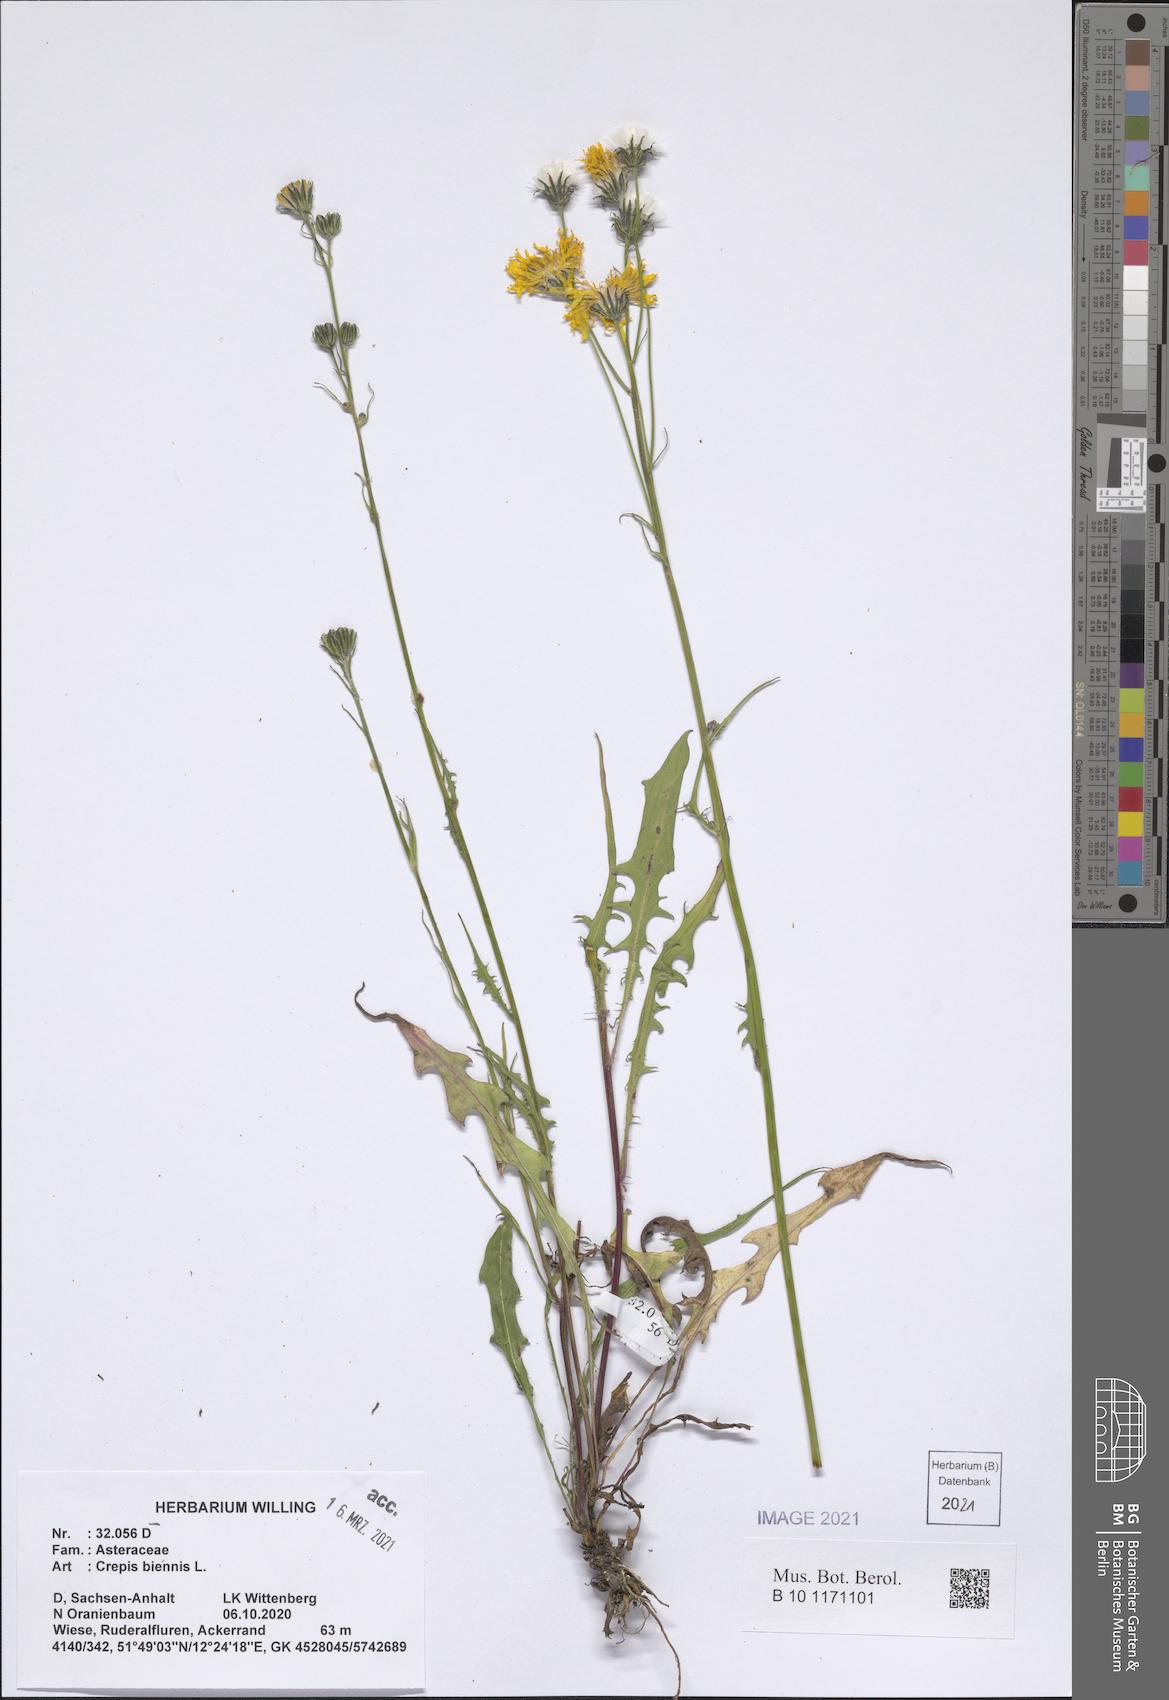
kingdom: Plantae
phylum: Tracheophyta
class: Magnoliopsida
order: Asterales
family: Asteraceae
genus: Crepis
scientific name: Crepis biennis
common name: Rough hawk's-beard
